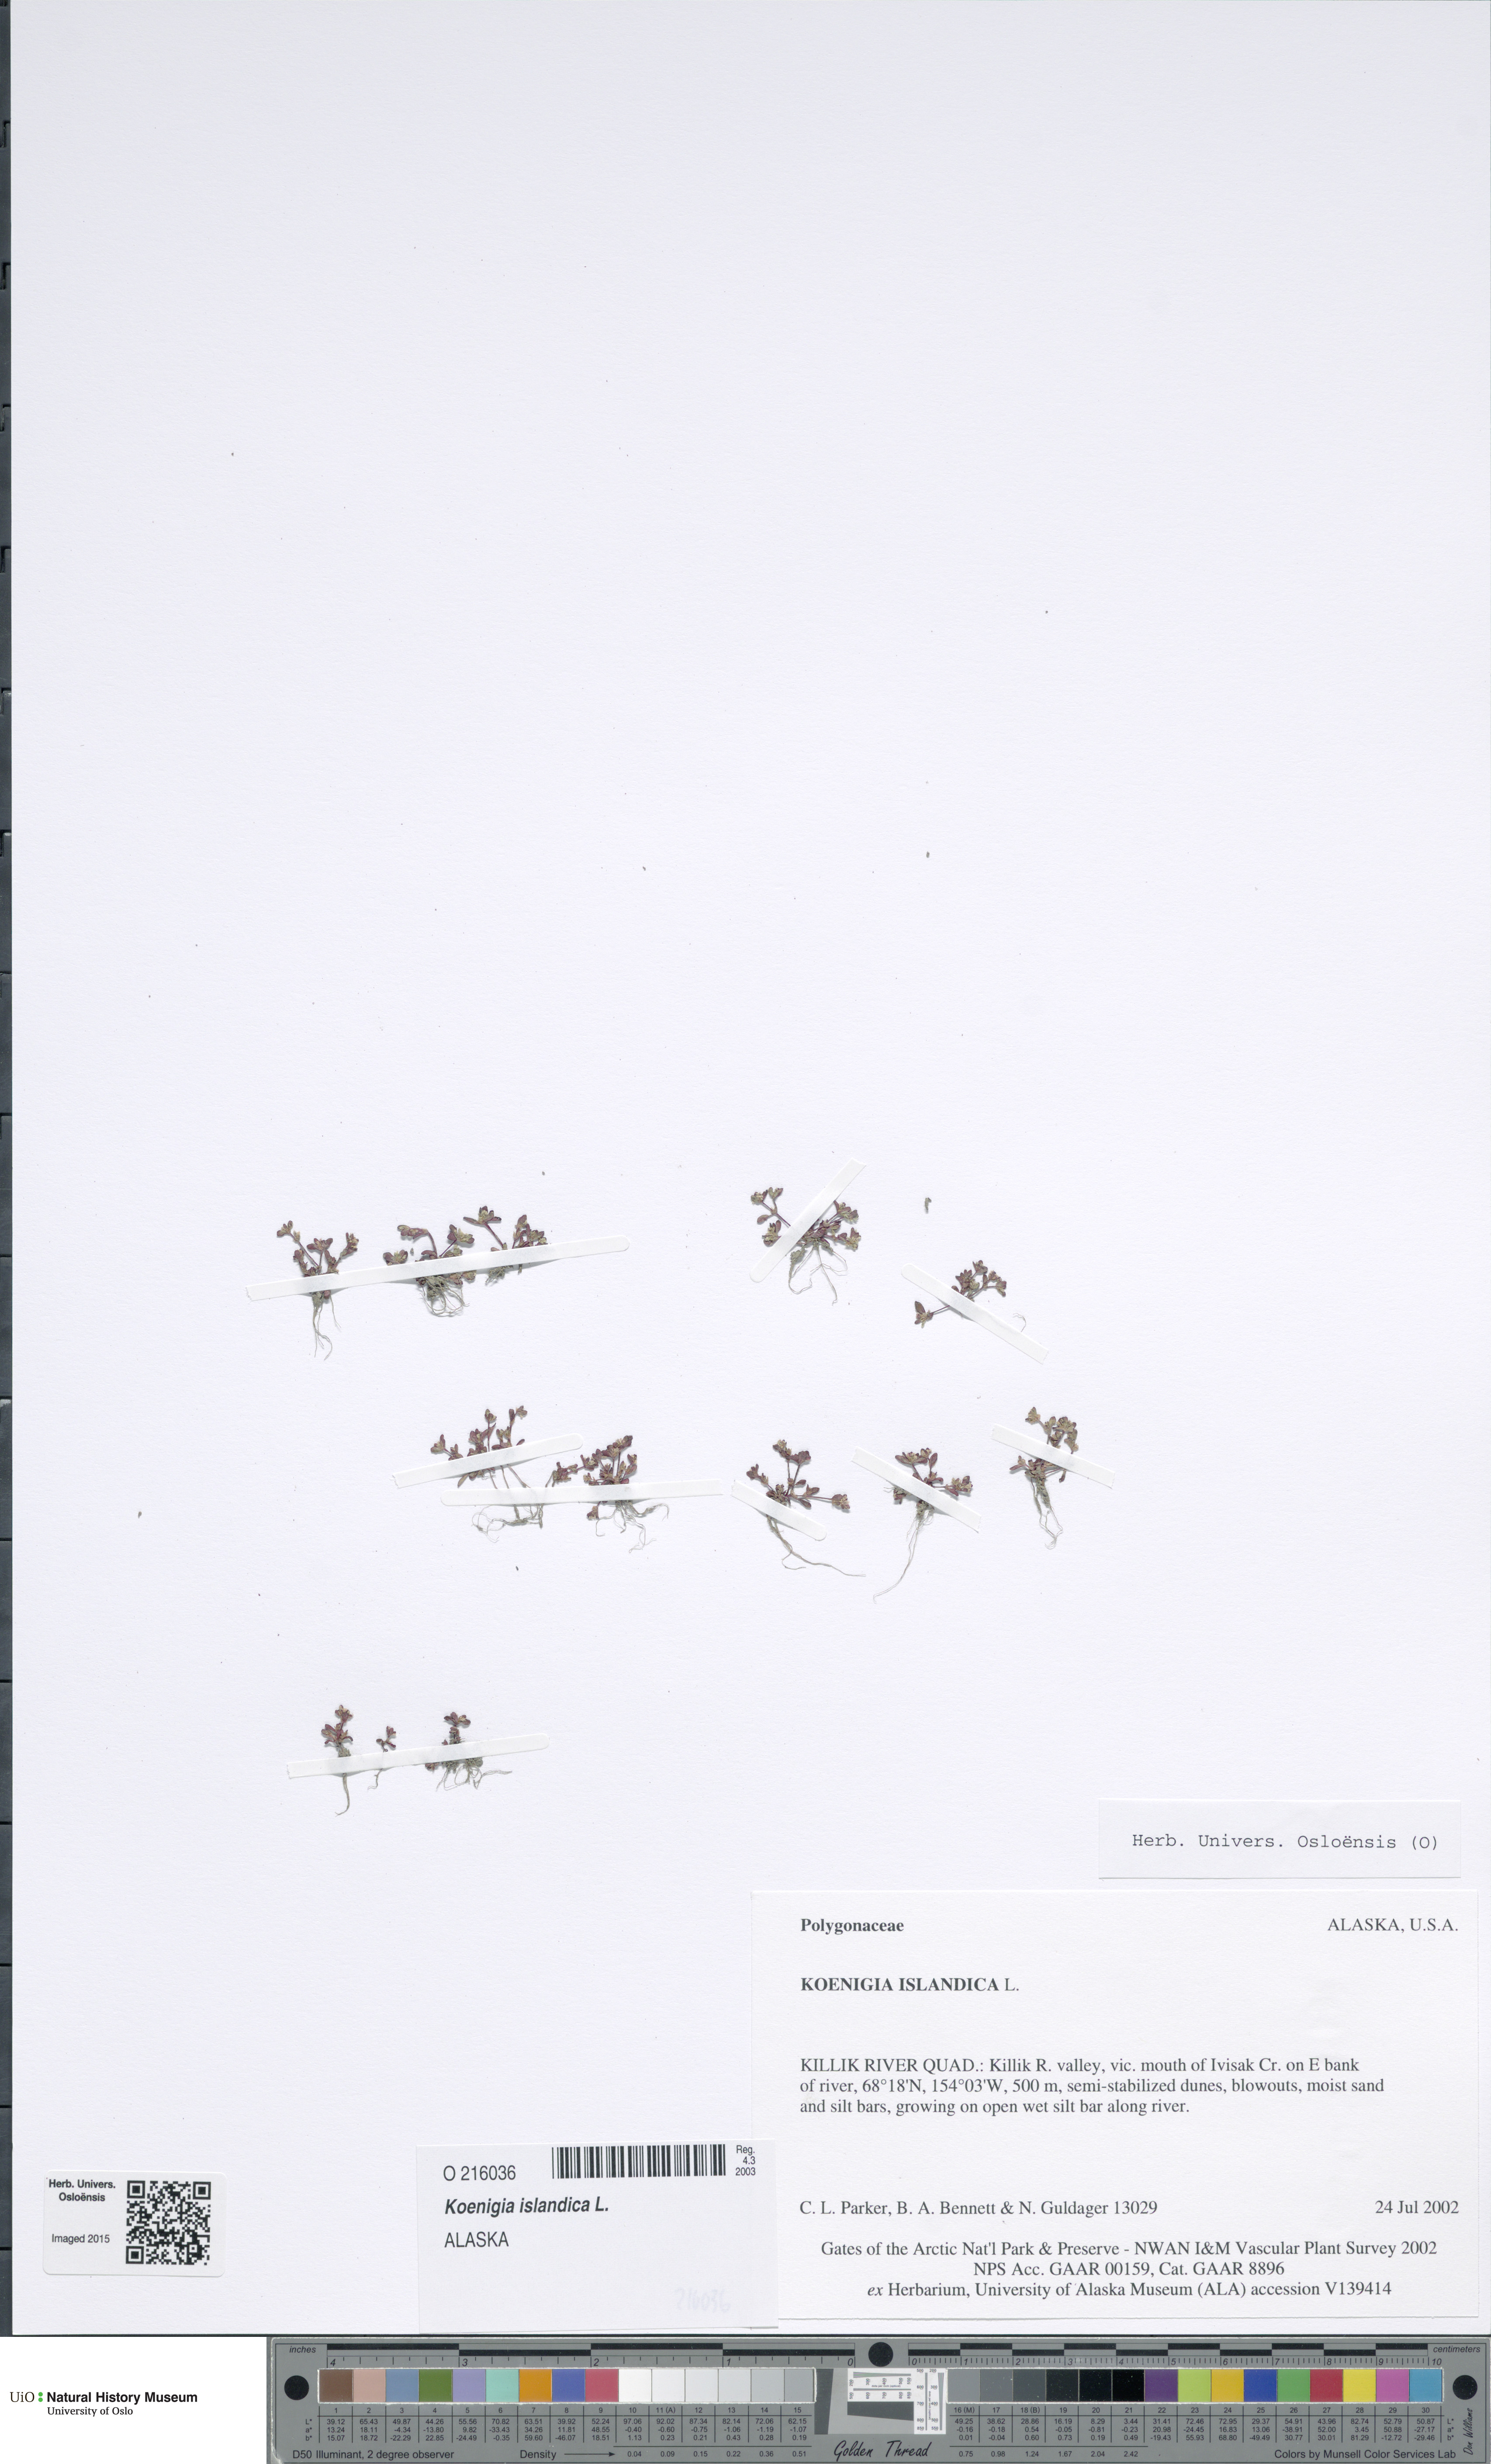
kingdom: Plantae
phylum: Tracheophyta
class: Magnoliopsida
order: Caryophyllales
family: Polygonaceae
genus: Koenigia
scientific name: Koenigia islandica
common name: Iceland-purslane
